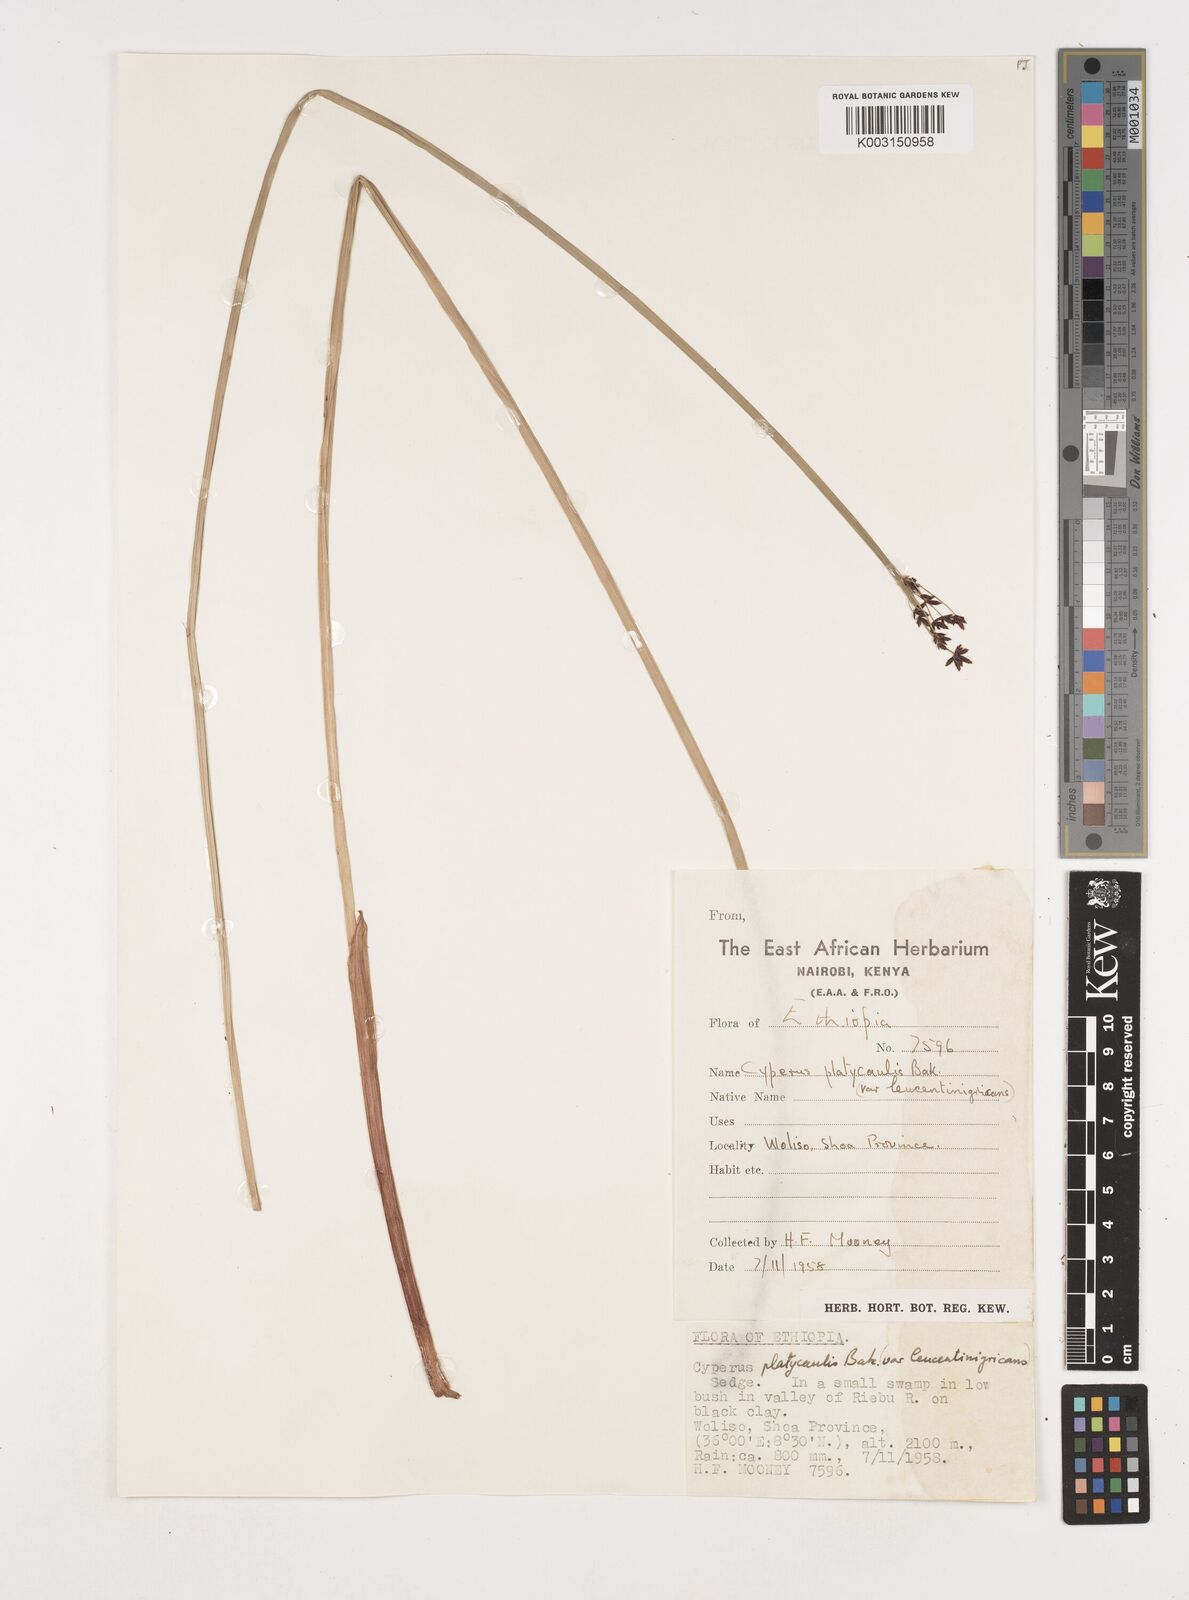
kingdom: Plantae
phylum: Tracheophyta
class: Liliopsida
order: Poales
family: Cyperaceae
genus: Cyperus
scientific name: Cyperus platycaulis
